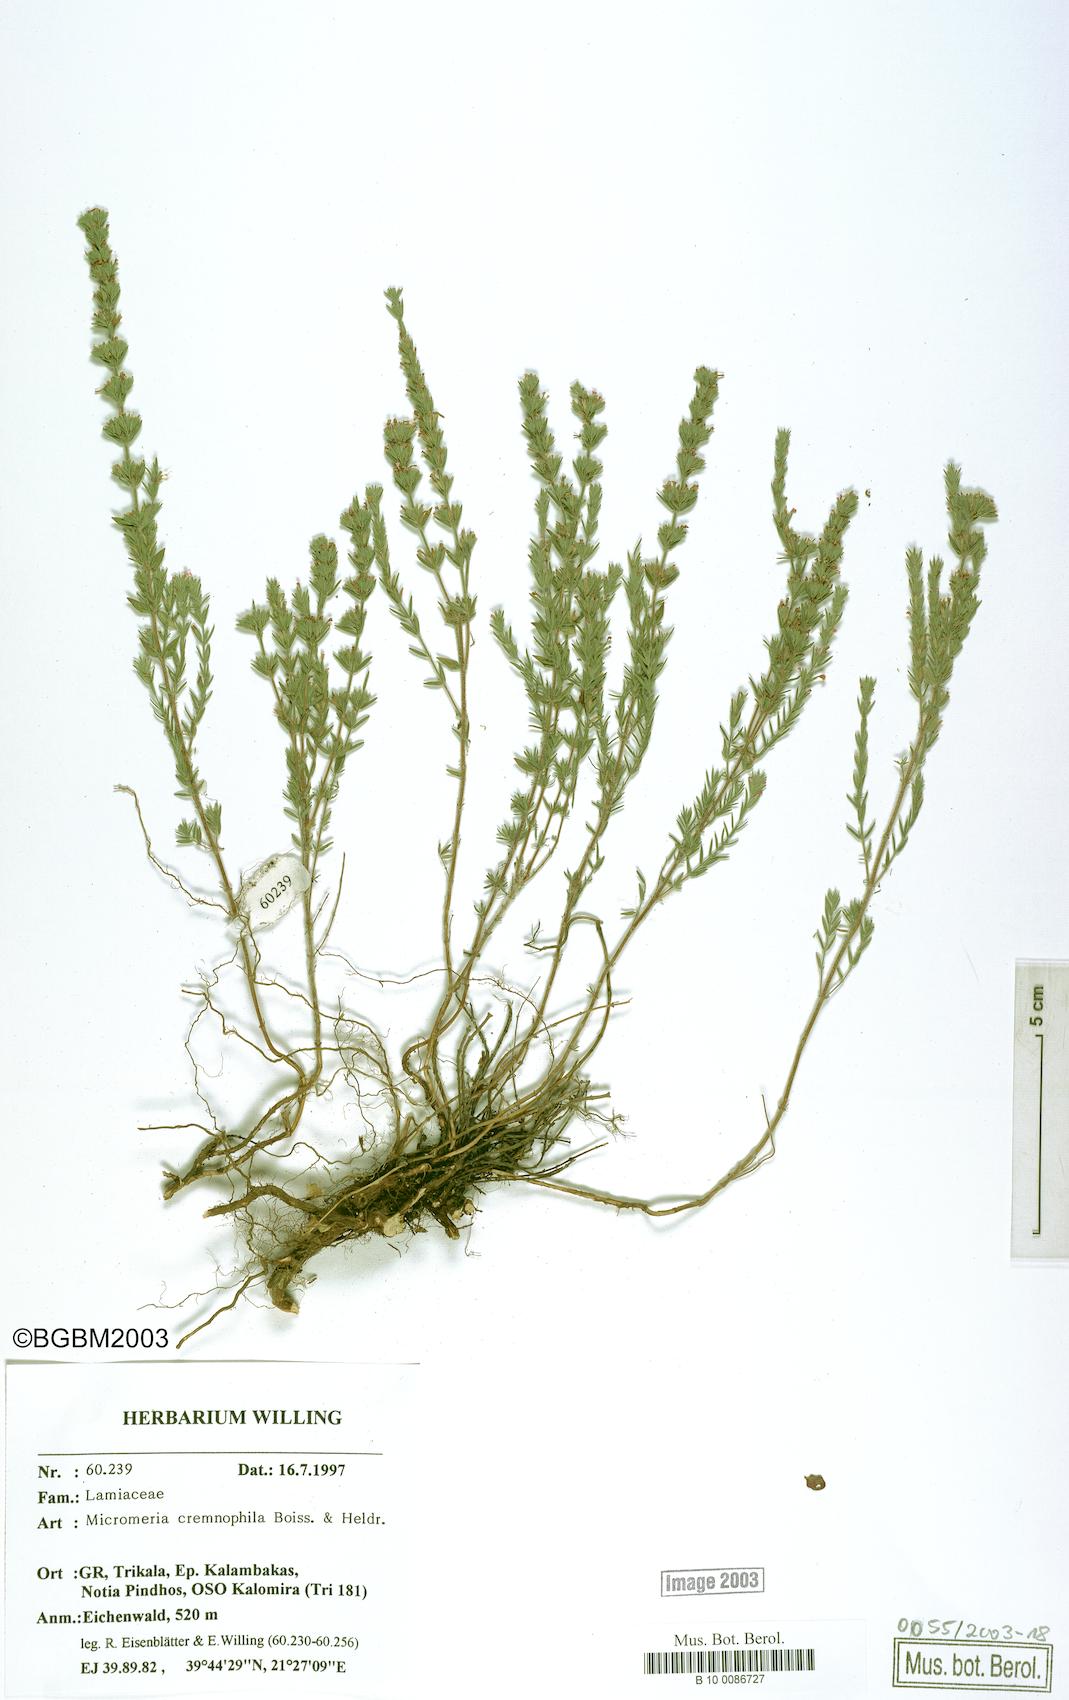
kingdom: Plantae
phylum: Tracheophyta
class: Magnoliopsida
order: Lamiales
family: Lamiaceae
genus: Micromeria
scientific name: Micromeria juliana
